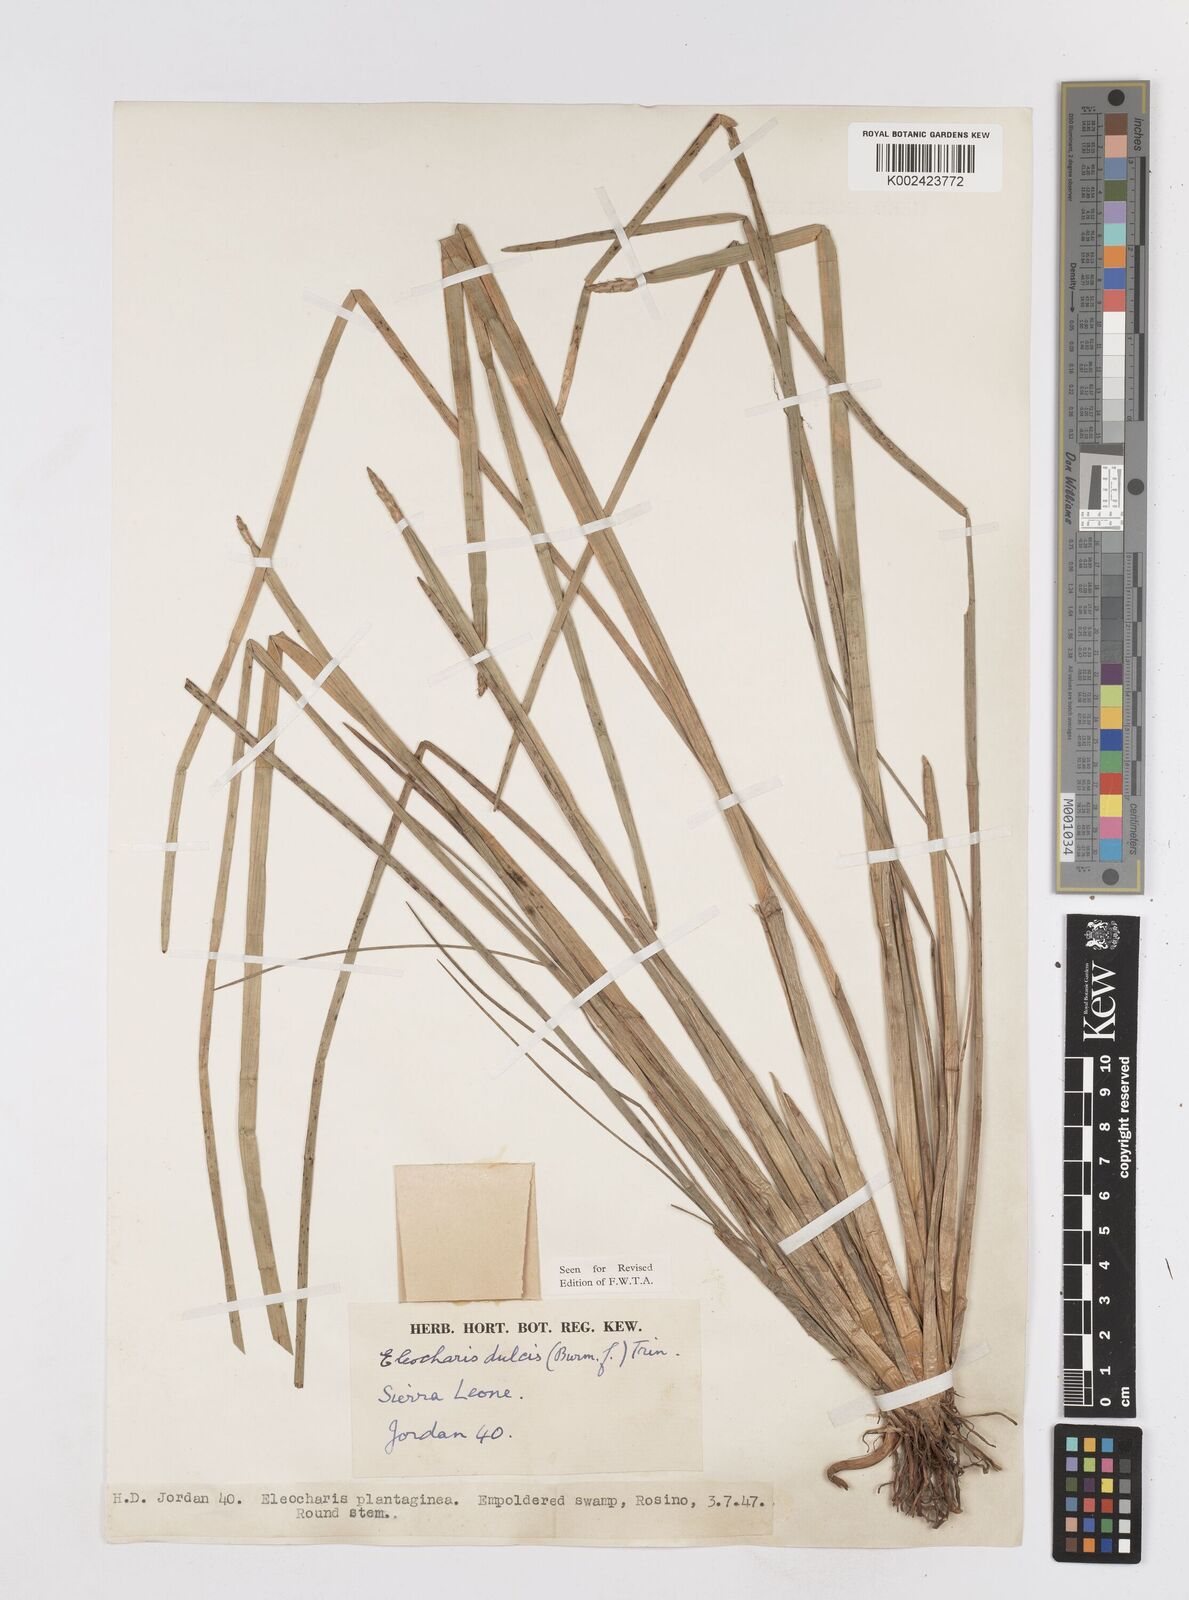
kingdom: Plantae
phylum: Tracheophyta
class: Liliopsida
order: Poales
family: Cyperaceae
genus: Eleocharis
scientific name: Eleocharis dulcis
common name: Chinese water chestnut
